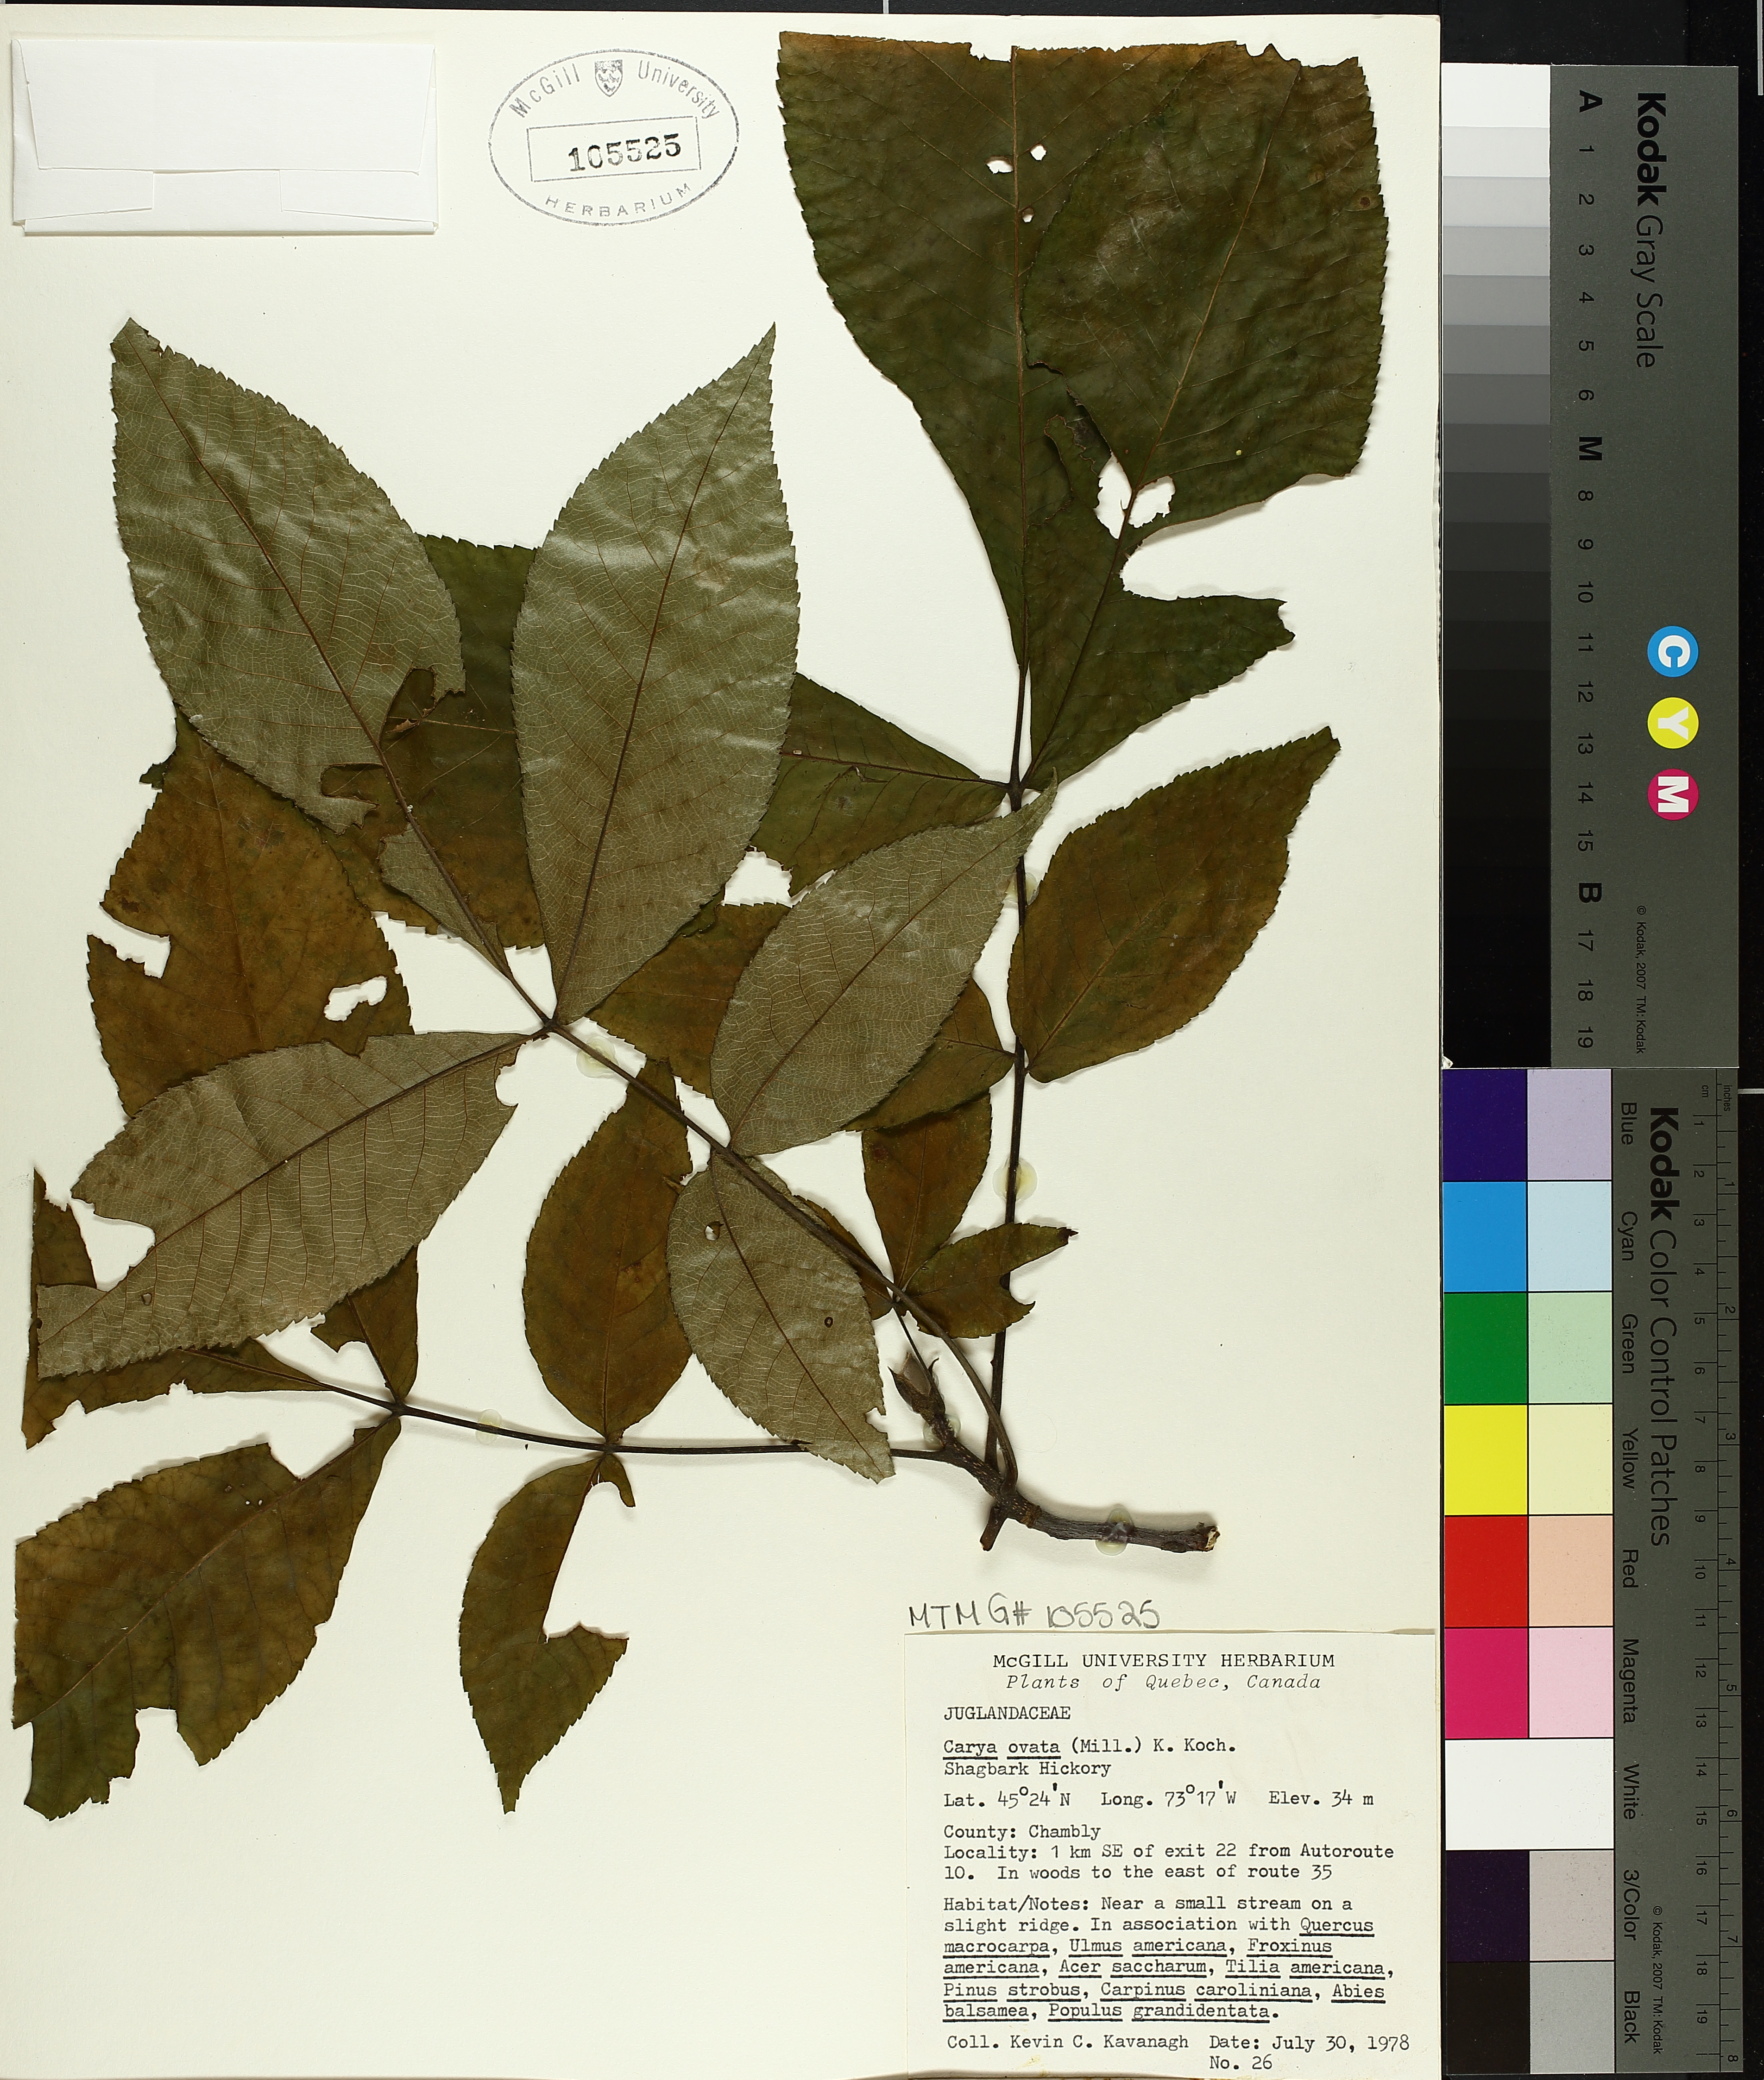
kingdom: Plantae
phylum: Tracheophyta
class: Magnoliopsida
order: Fagales
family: Juglandaceae
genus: Carya
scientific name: Carya ovata
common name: Shagbark hickory
